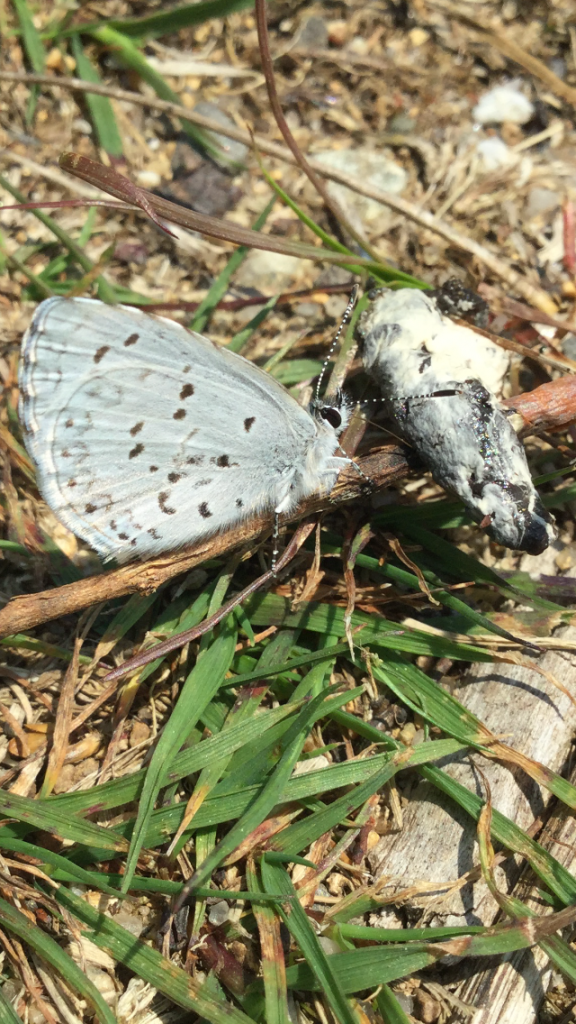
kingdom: Animalia
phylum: Arthropoda
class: Insecta
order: Lepidoptera
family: Lycaenidae
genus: Celastrina
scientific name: Celastrina
